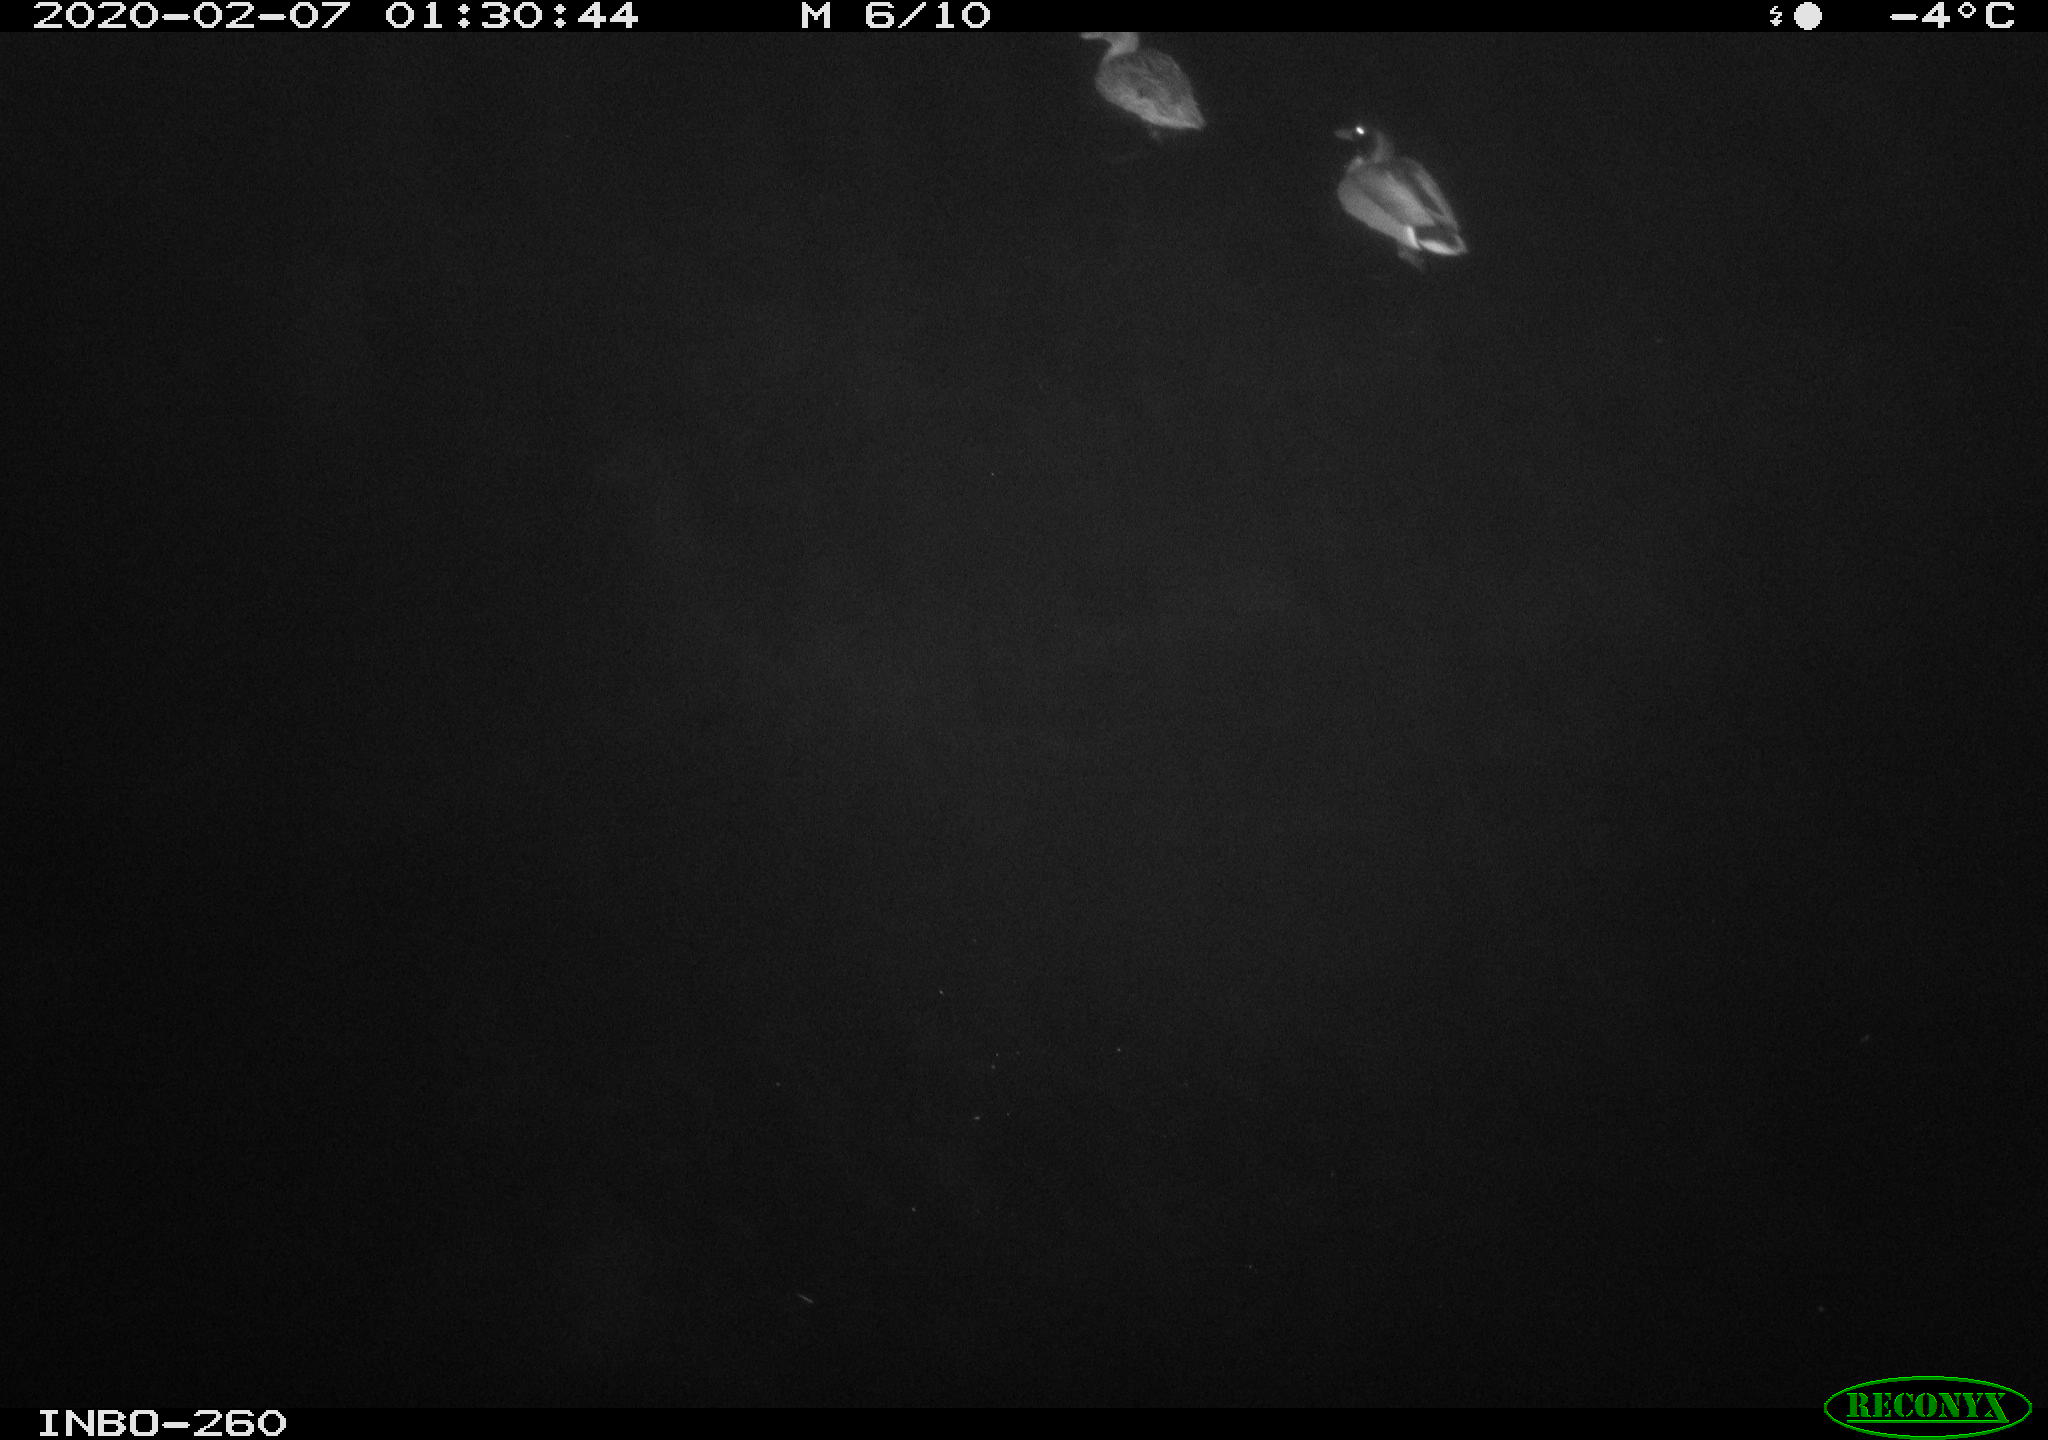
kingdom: Animalia
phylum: Chordata
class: Aves
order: Anseriformes
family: Anatidae
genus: Anas
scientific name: Anas platyrhynchos
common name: Mallard
